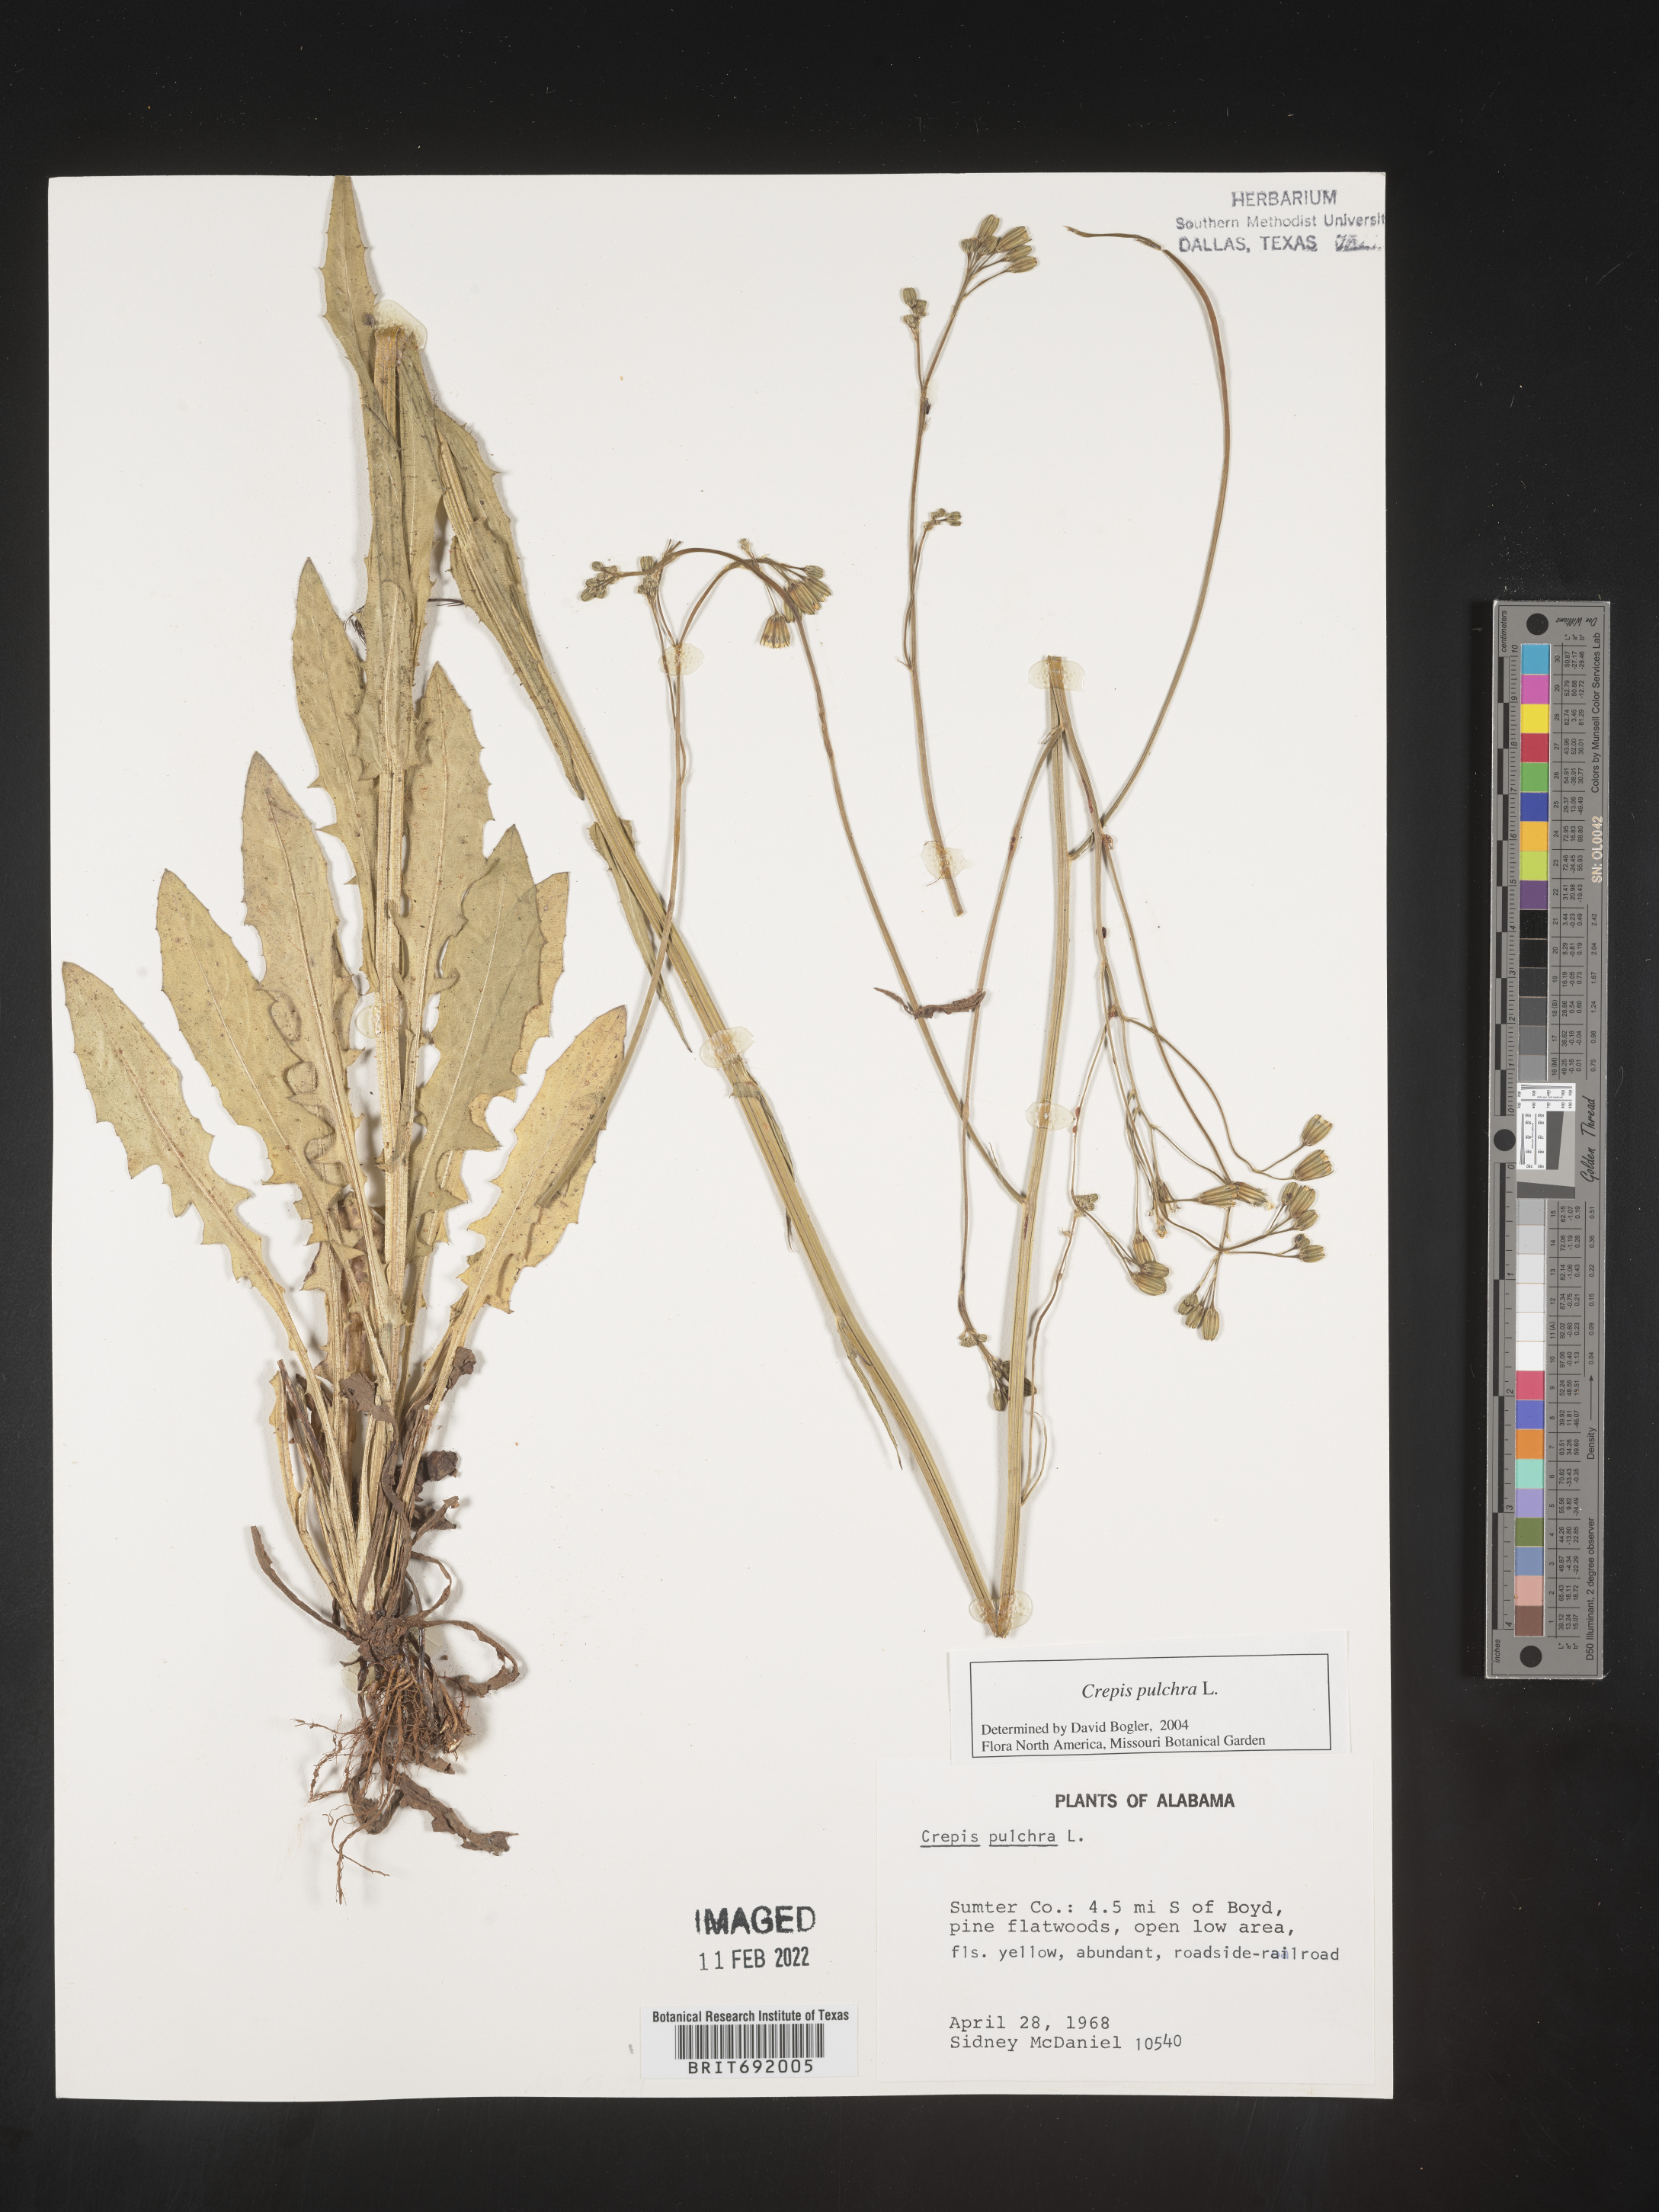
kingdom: Plantae
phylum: Tracheophyta
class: Magnoliopsida
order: Asterales
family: Asteraceae
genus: Crepis
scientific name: Crepis pulchra
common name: Hawk's-beard
